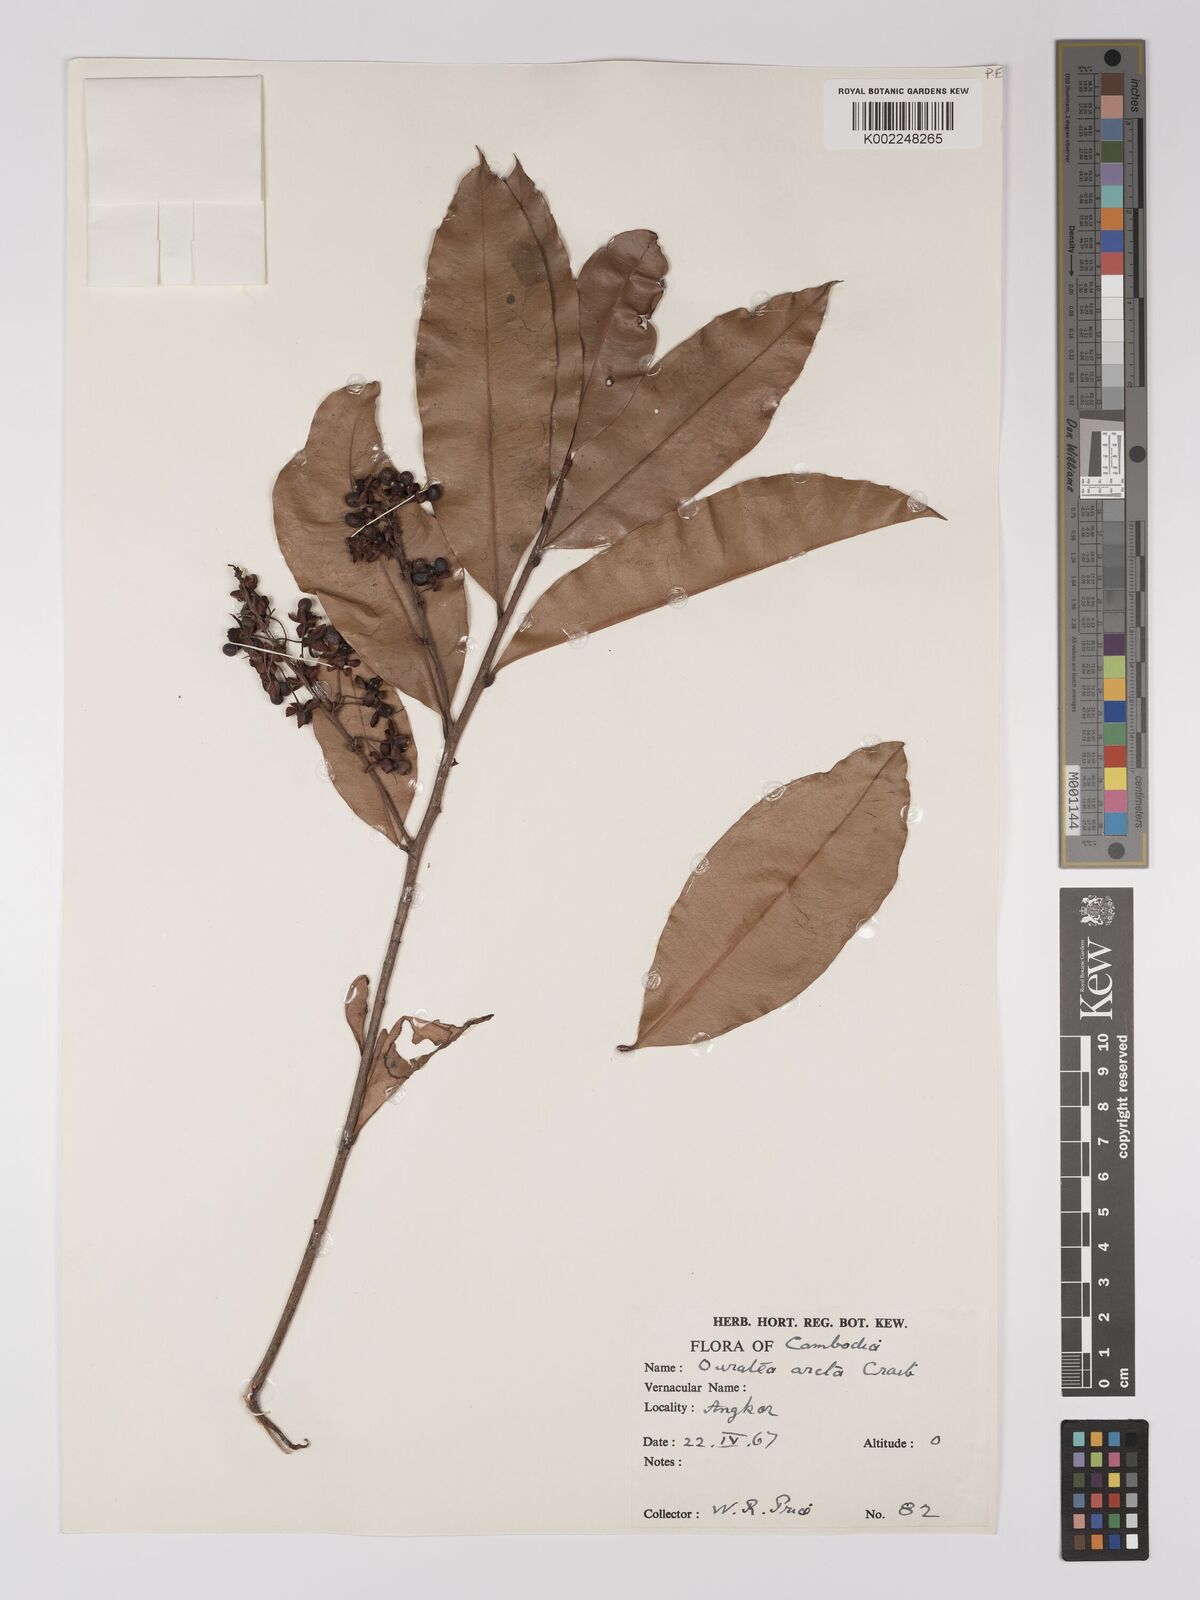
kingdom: Plantae
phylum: Tracheophyta
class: Magnoliopsida
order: Malpighiales
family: Ochnaceae
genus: Gomphia
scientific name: Gomphia serrata
